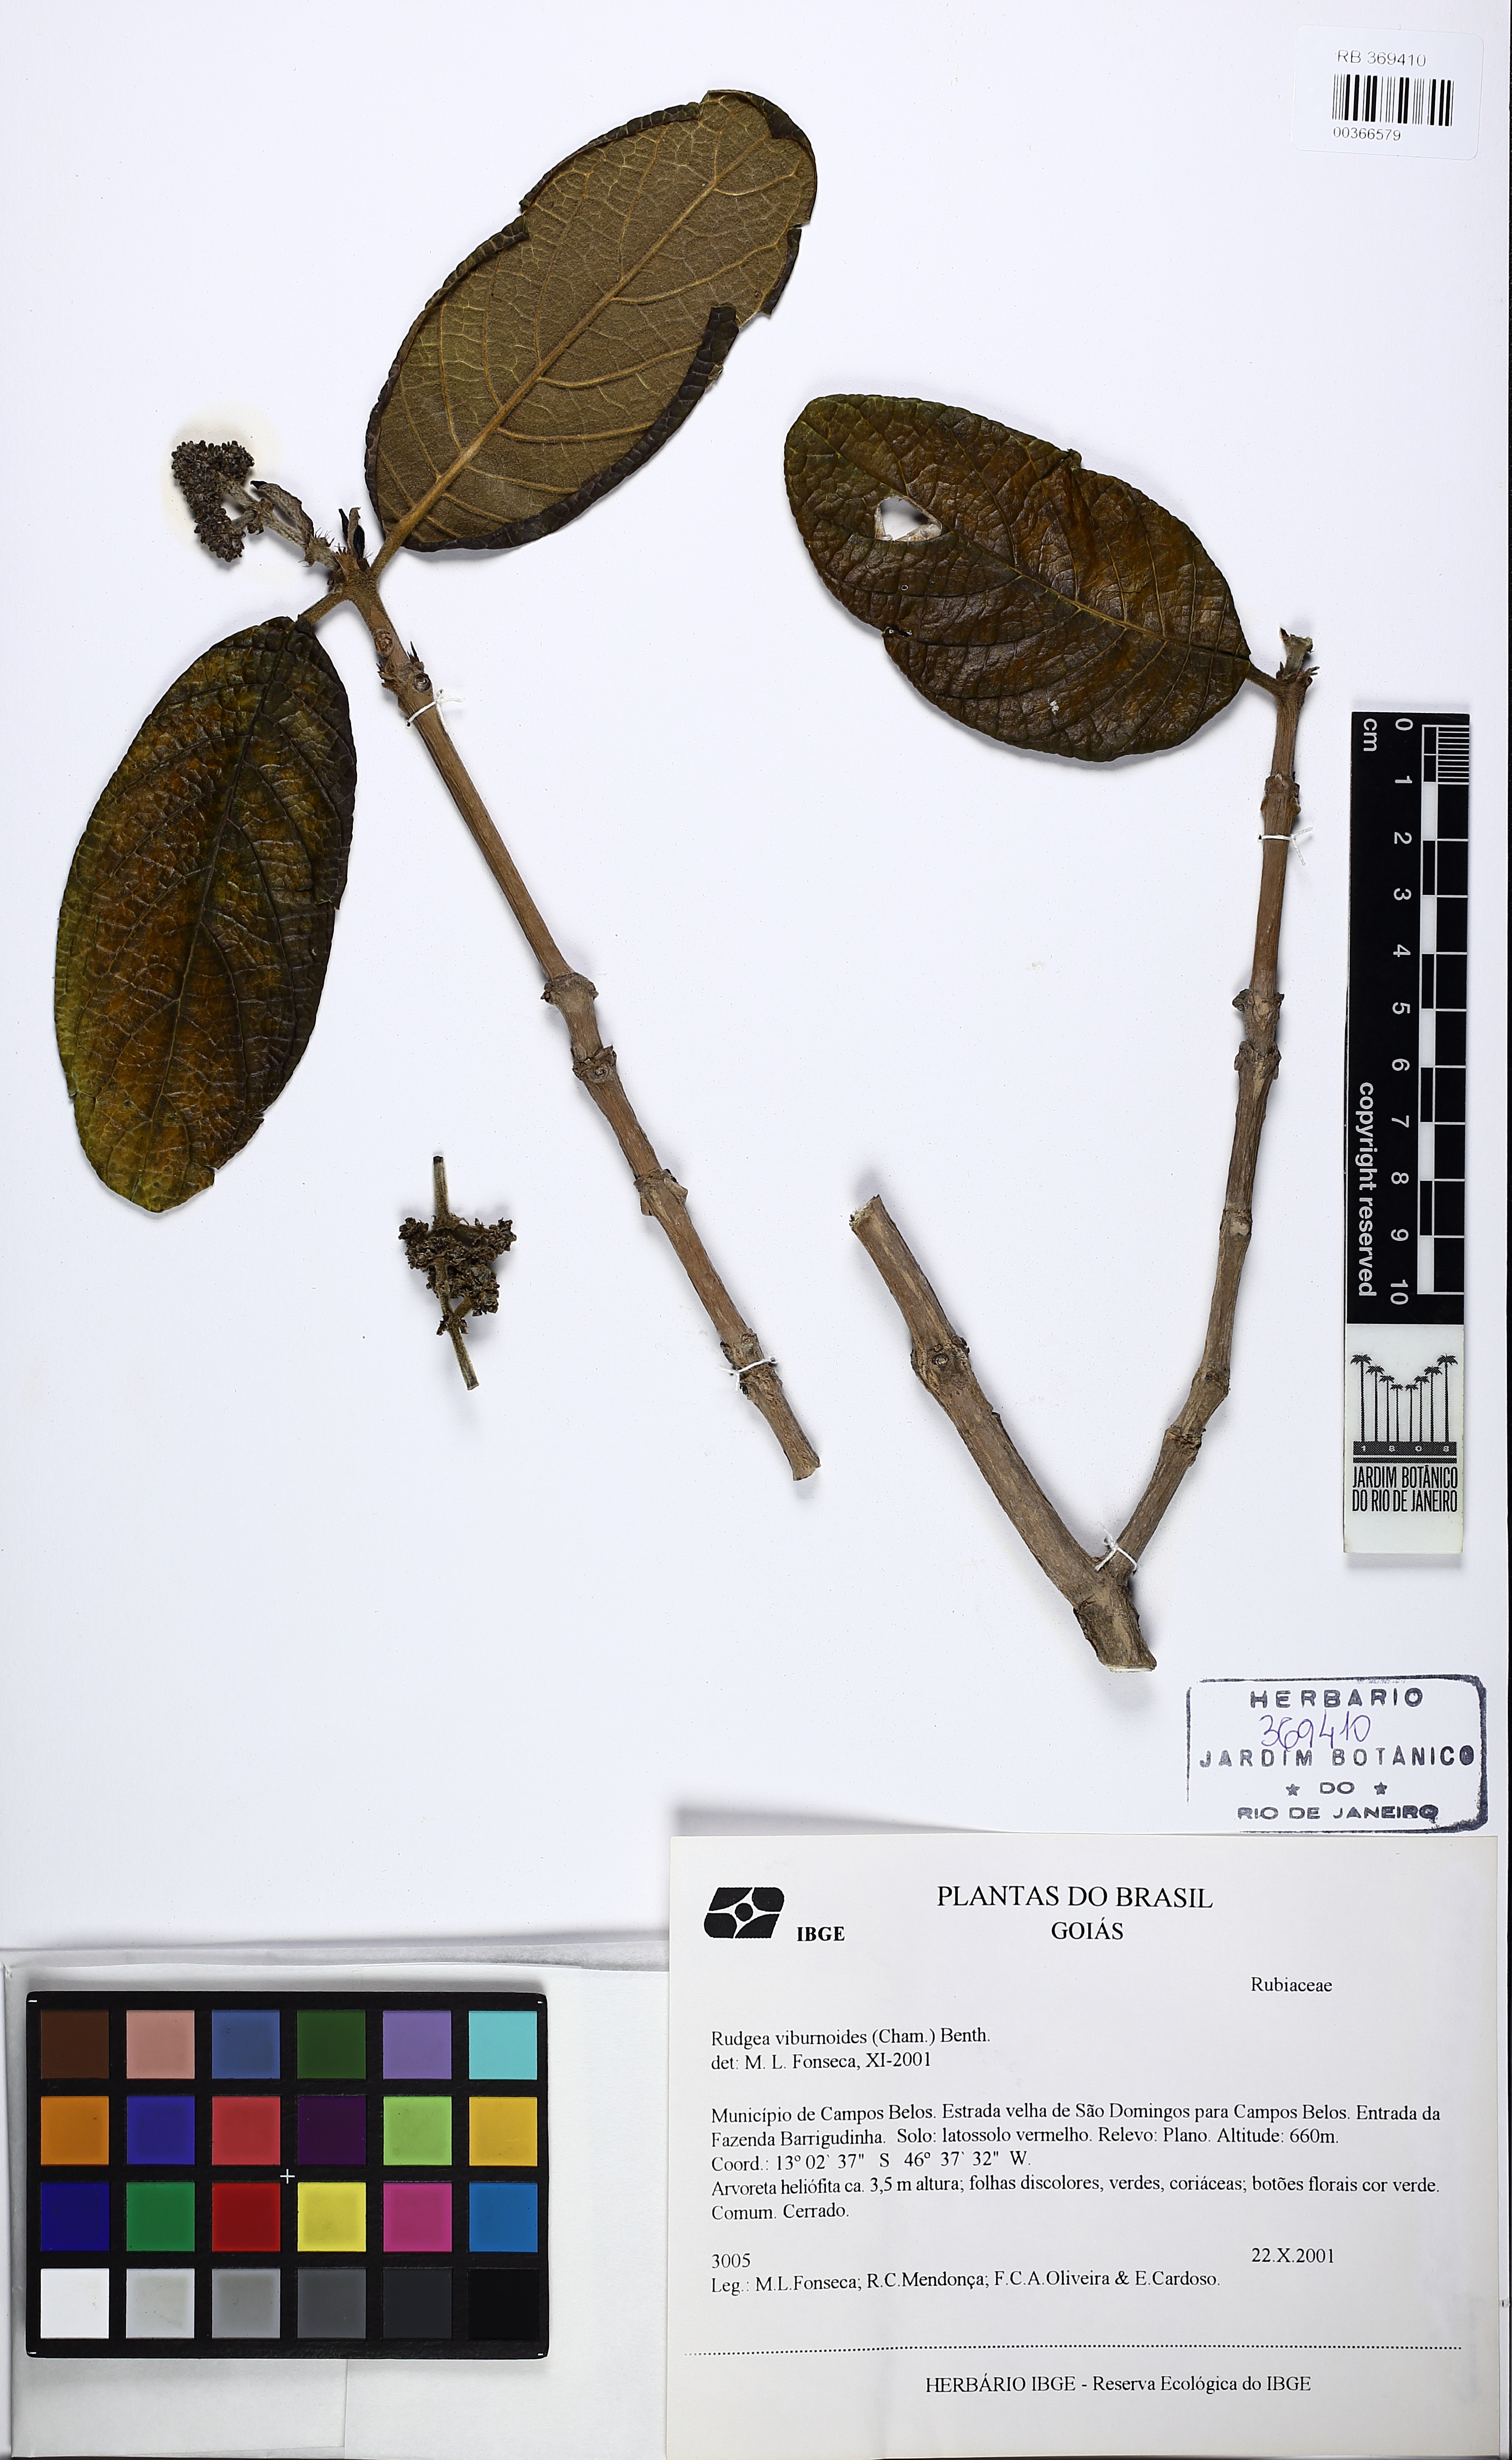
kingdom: Plantae
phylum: Tracheophyta
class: Magnoliopsida
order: Gentianales
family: Rubiaceae
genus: Rudgea
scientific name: Rudgea viburnoides
